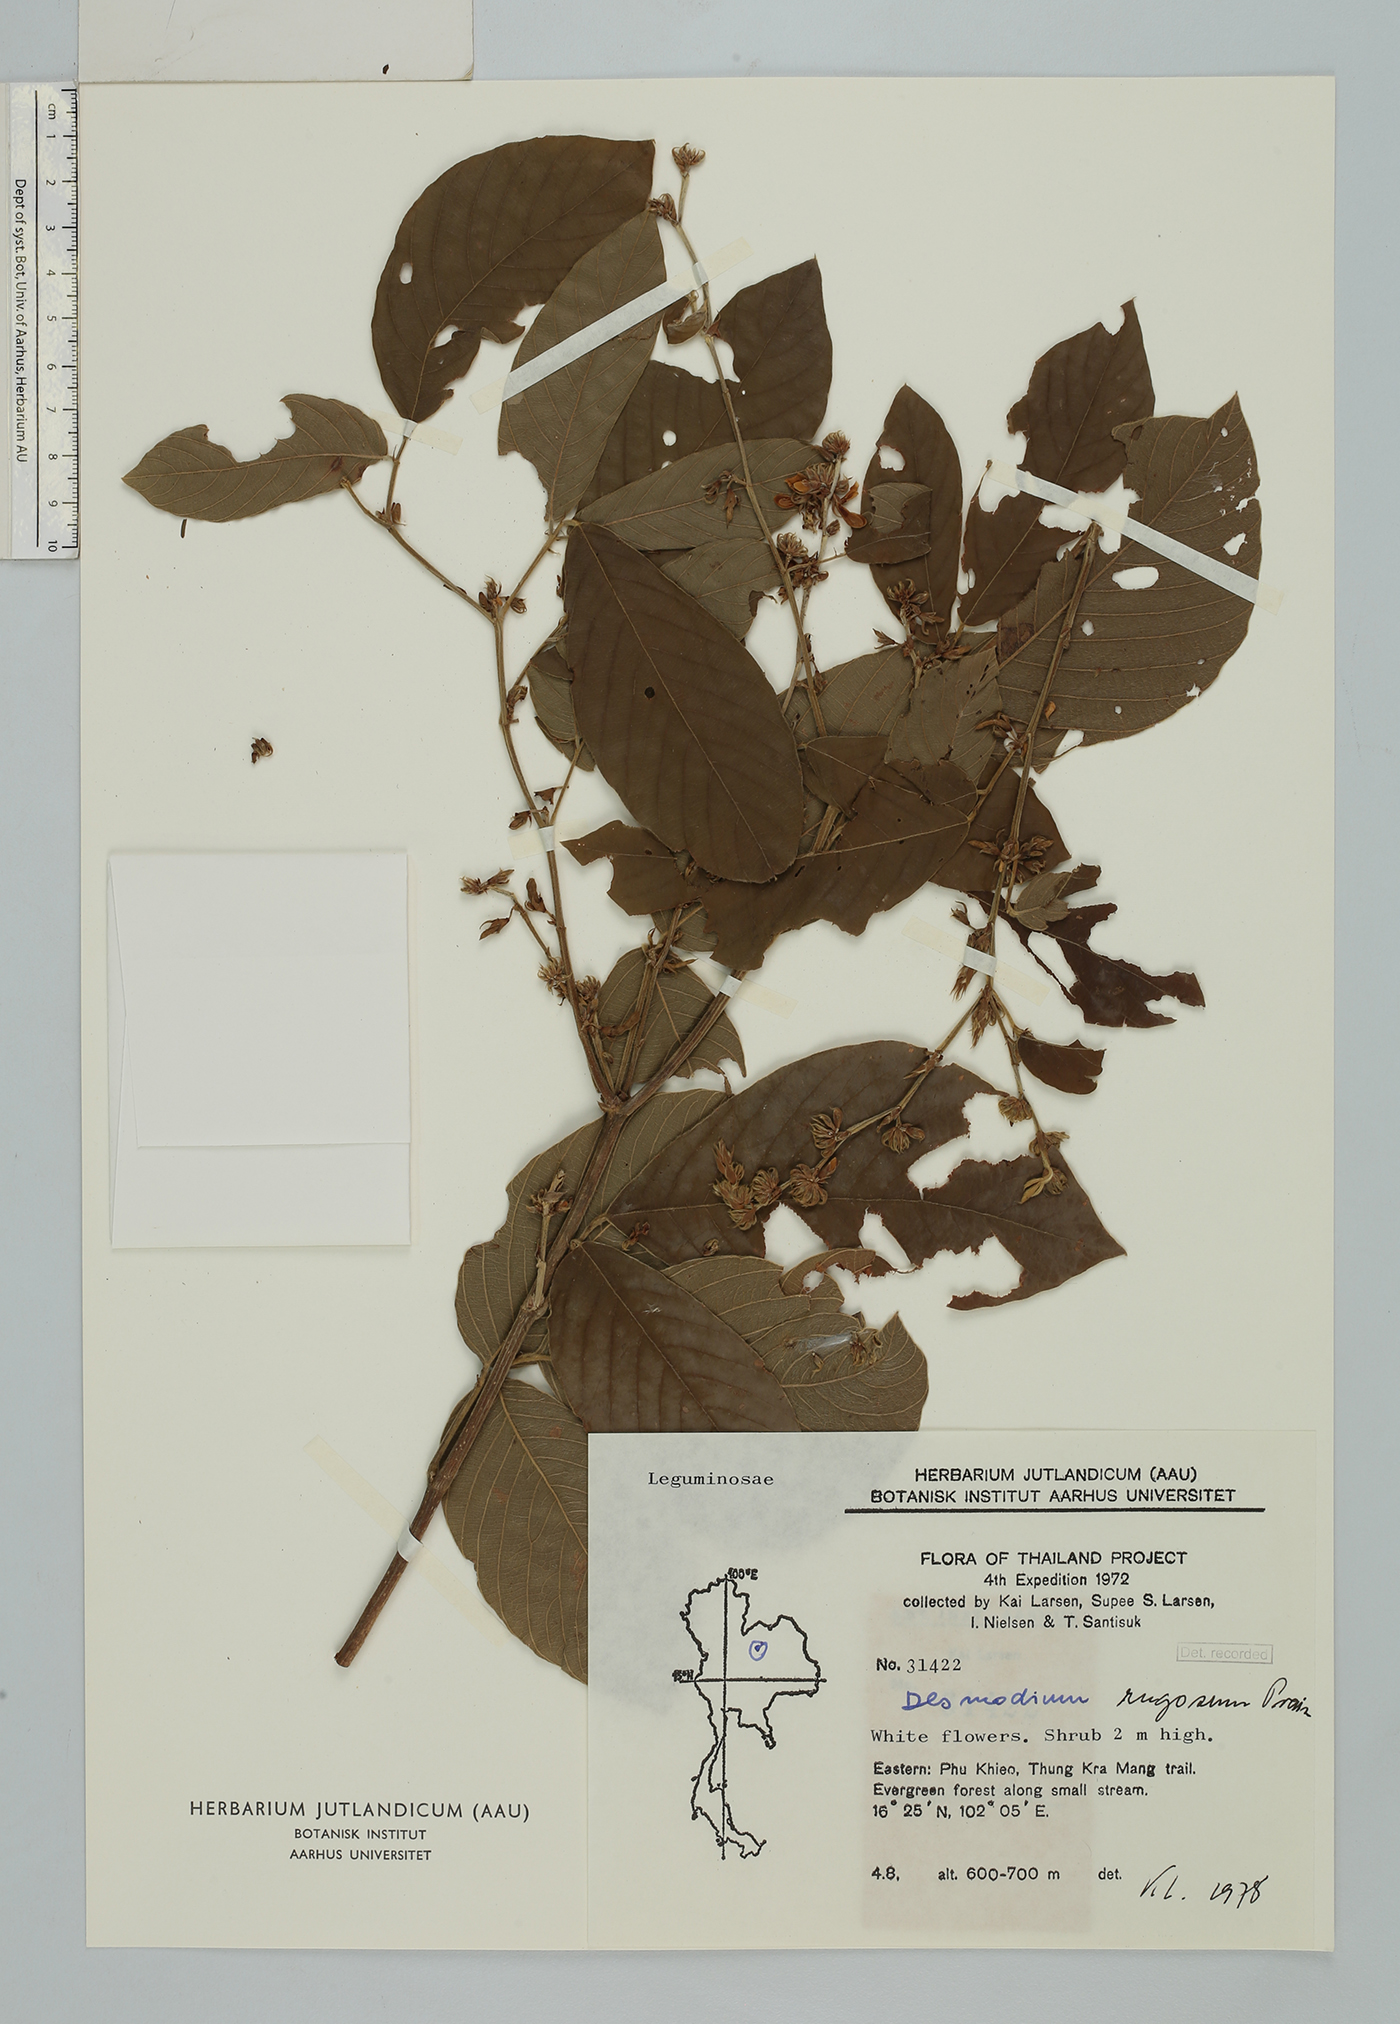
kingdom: Plantae
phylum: Tracheophyta
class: Magnoliopsida
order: Fabales
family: Fabaceae
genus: Dendrolobium
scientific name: Dendrolobium rugosum
